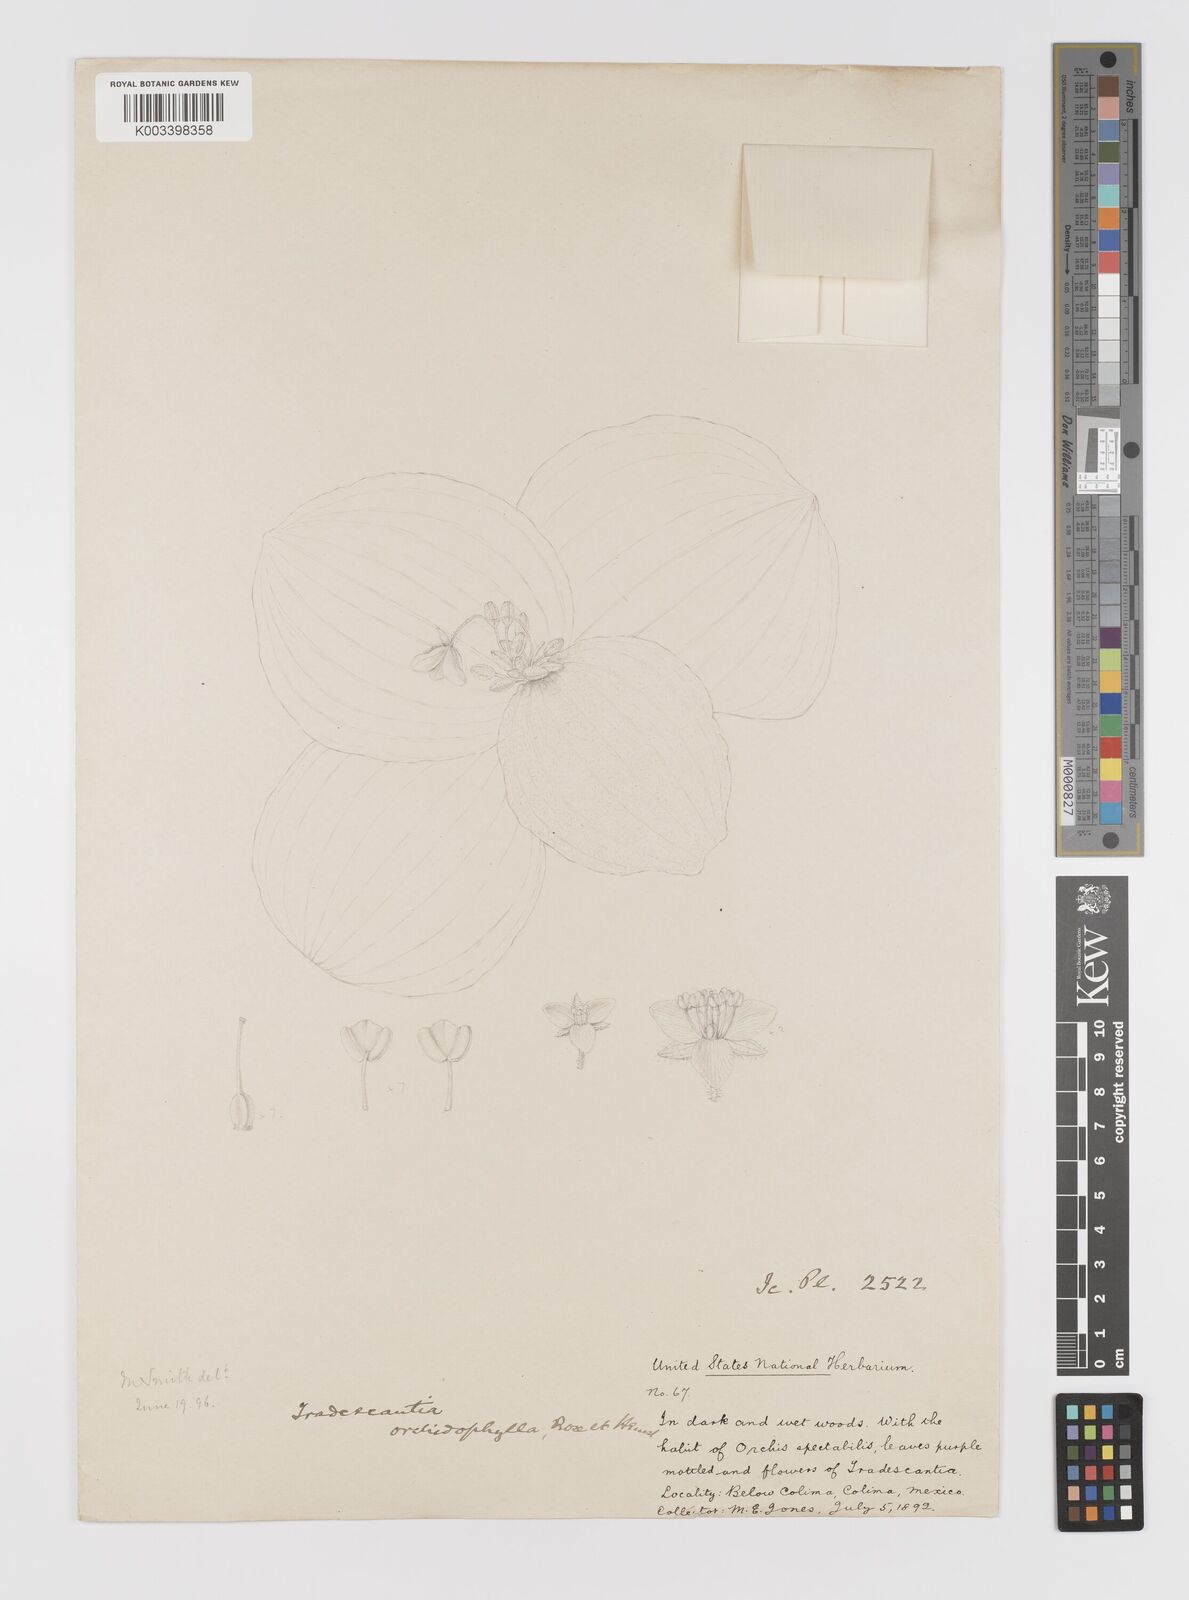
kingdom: Plantae
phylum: Tracheophyta
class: Liliopsida
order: Commelinales
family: Commelinaceae
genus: Tradescantia
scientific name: Tradescantia orchidophylla
